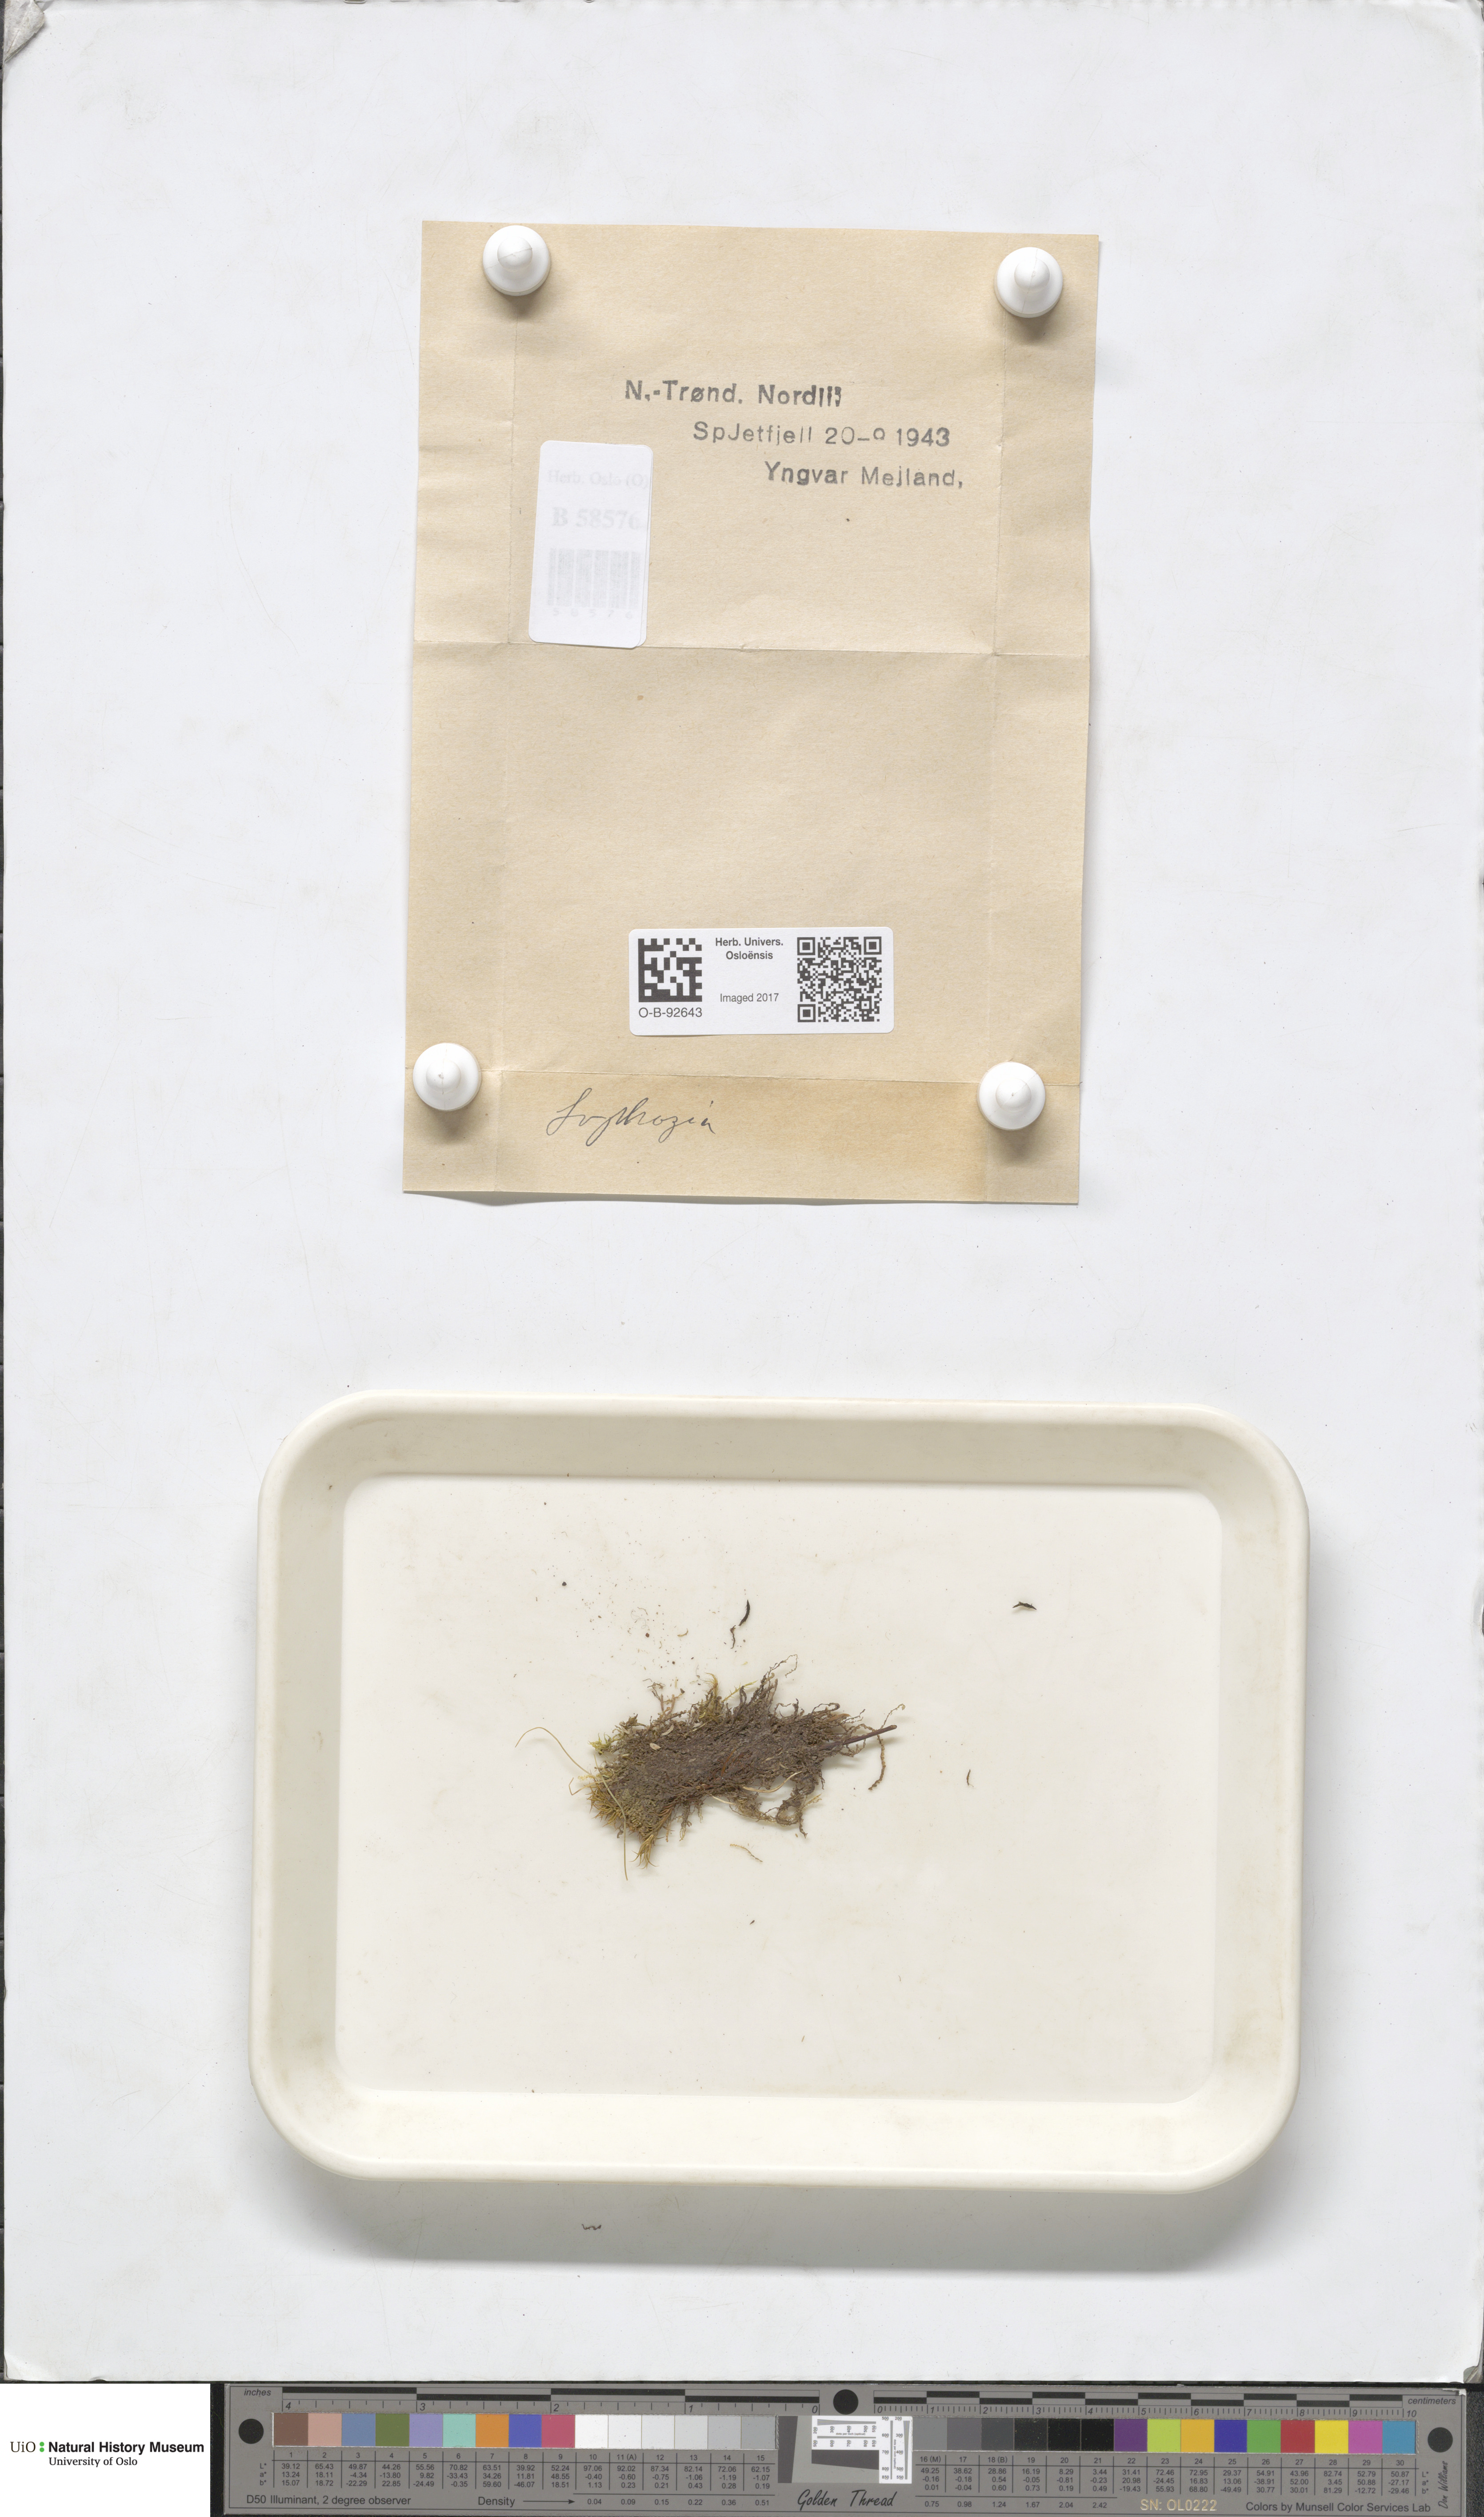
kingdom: Plantae
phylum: Marchantiophyta
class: Jungermanniopsida
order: Jungermanniales
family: Lophoziaceae
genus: Lophozia
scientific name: Lophozia
